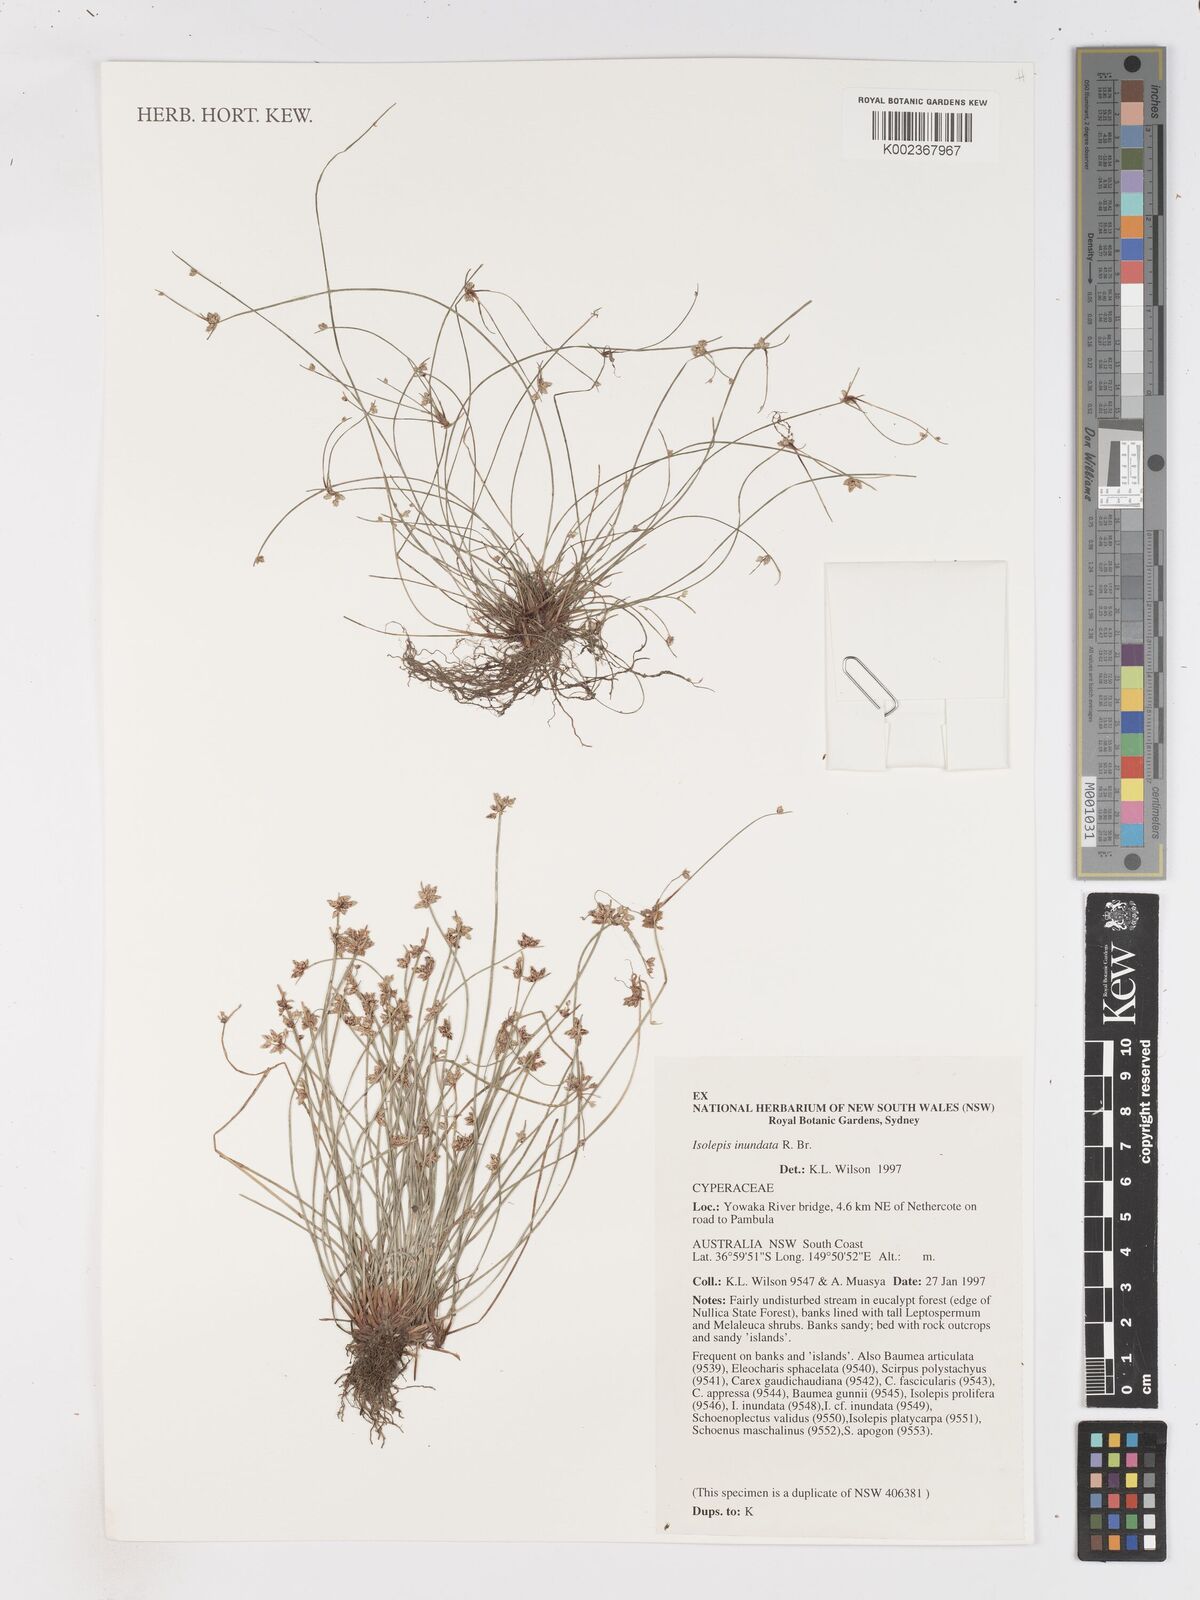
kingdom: Plantae
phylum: Tracheophyta
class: Liliopsida
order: Poales
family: Cyperaceae
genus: Isolepis
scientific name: Isolepis inundata
